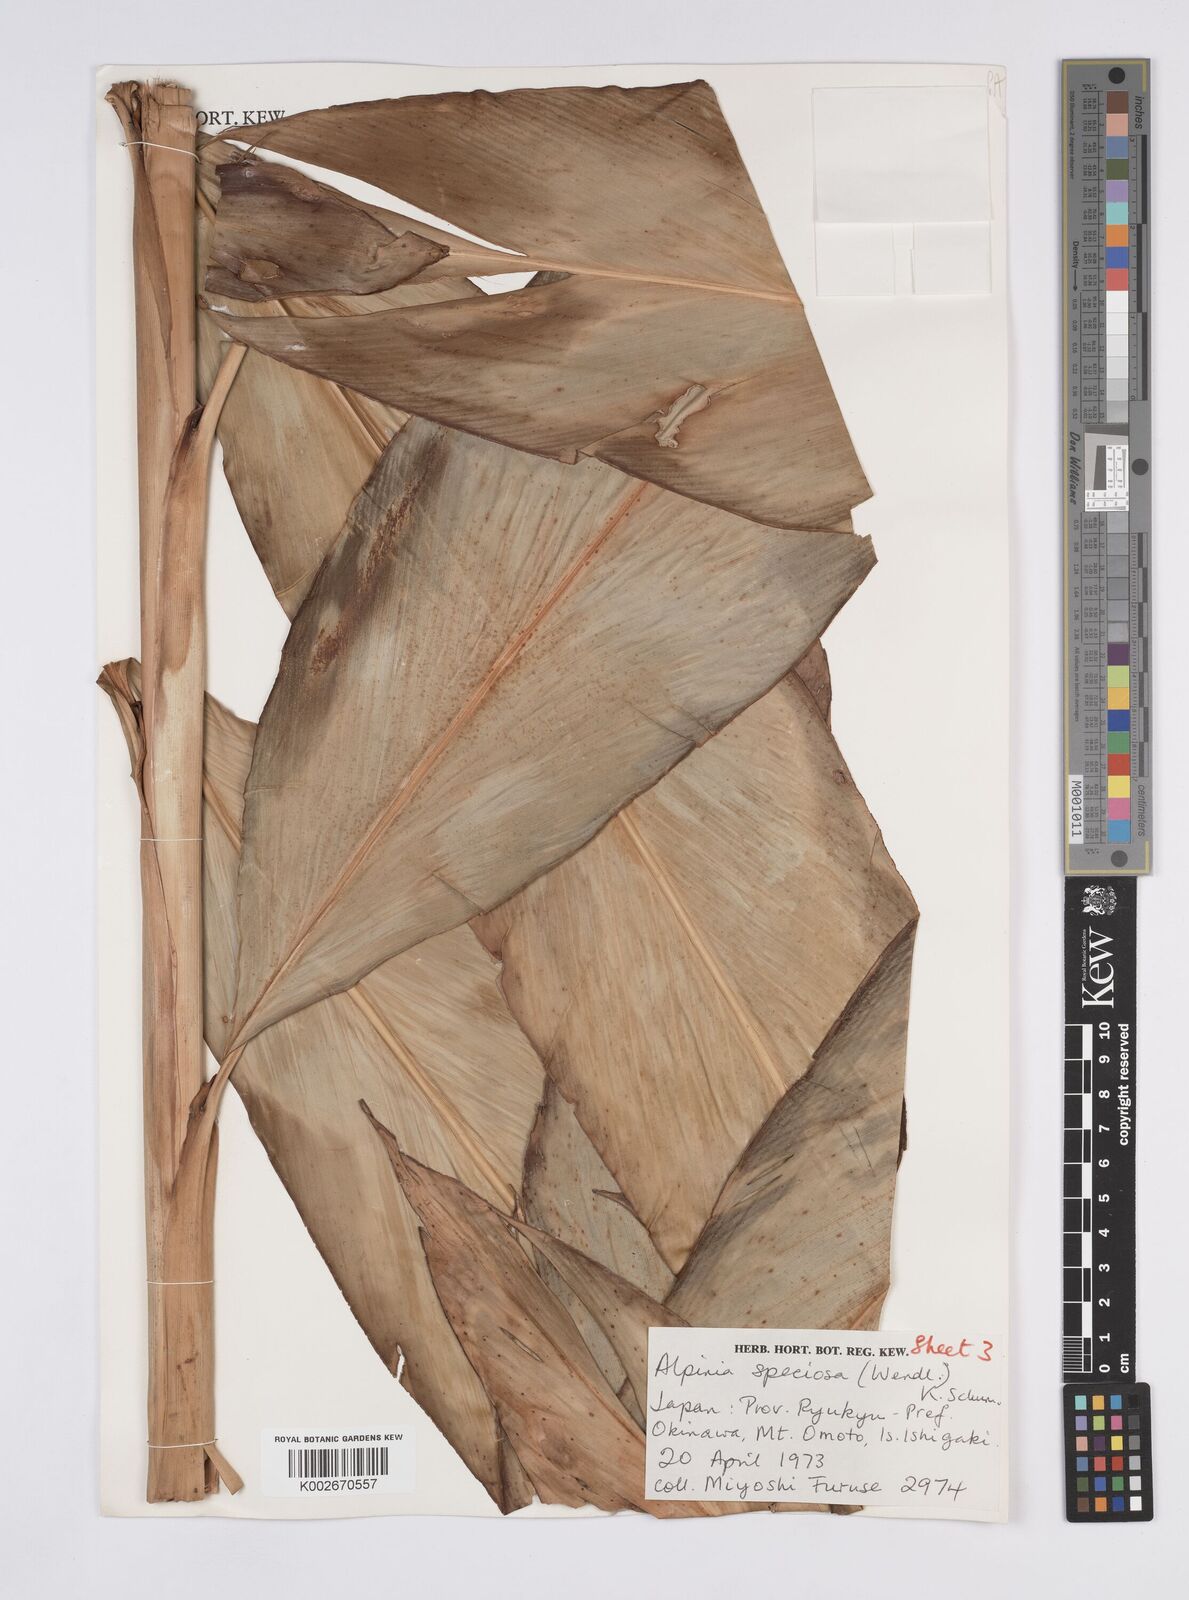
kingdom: Plantae
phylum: Tracheophyta
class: Liliopsida
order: Zingiberales
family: Zingiberaceae
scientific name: Zingiberaceae
